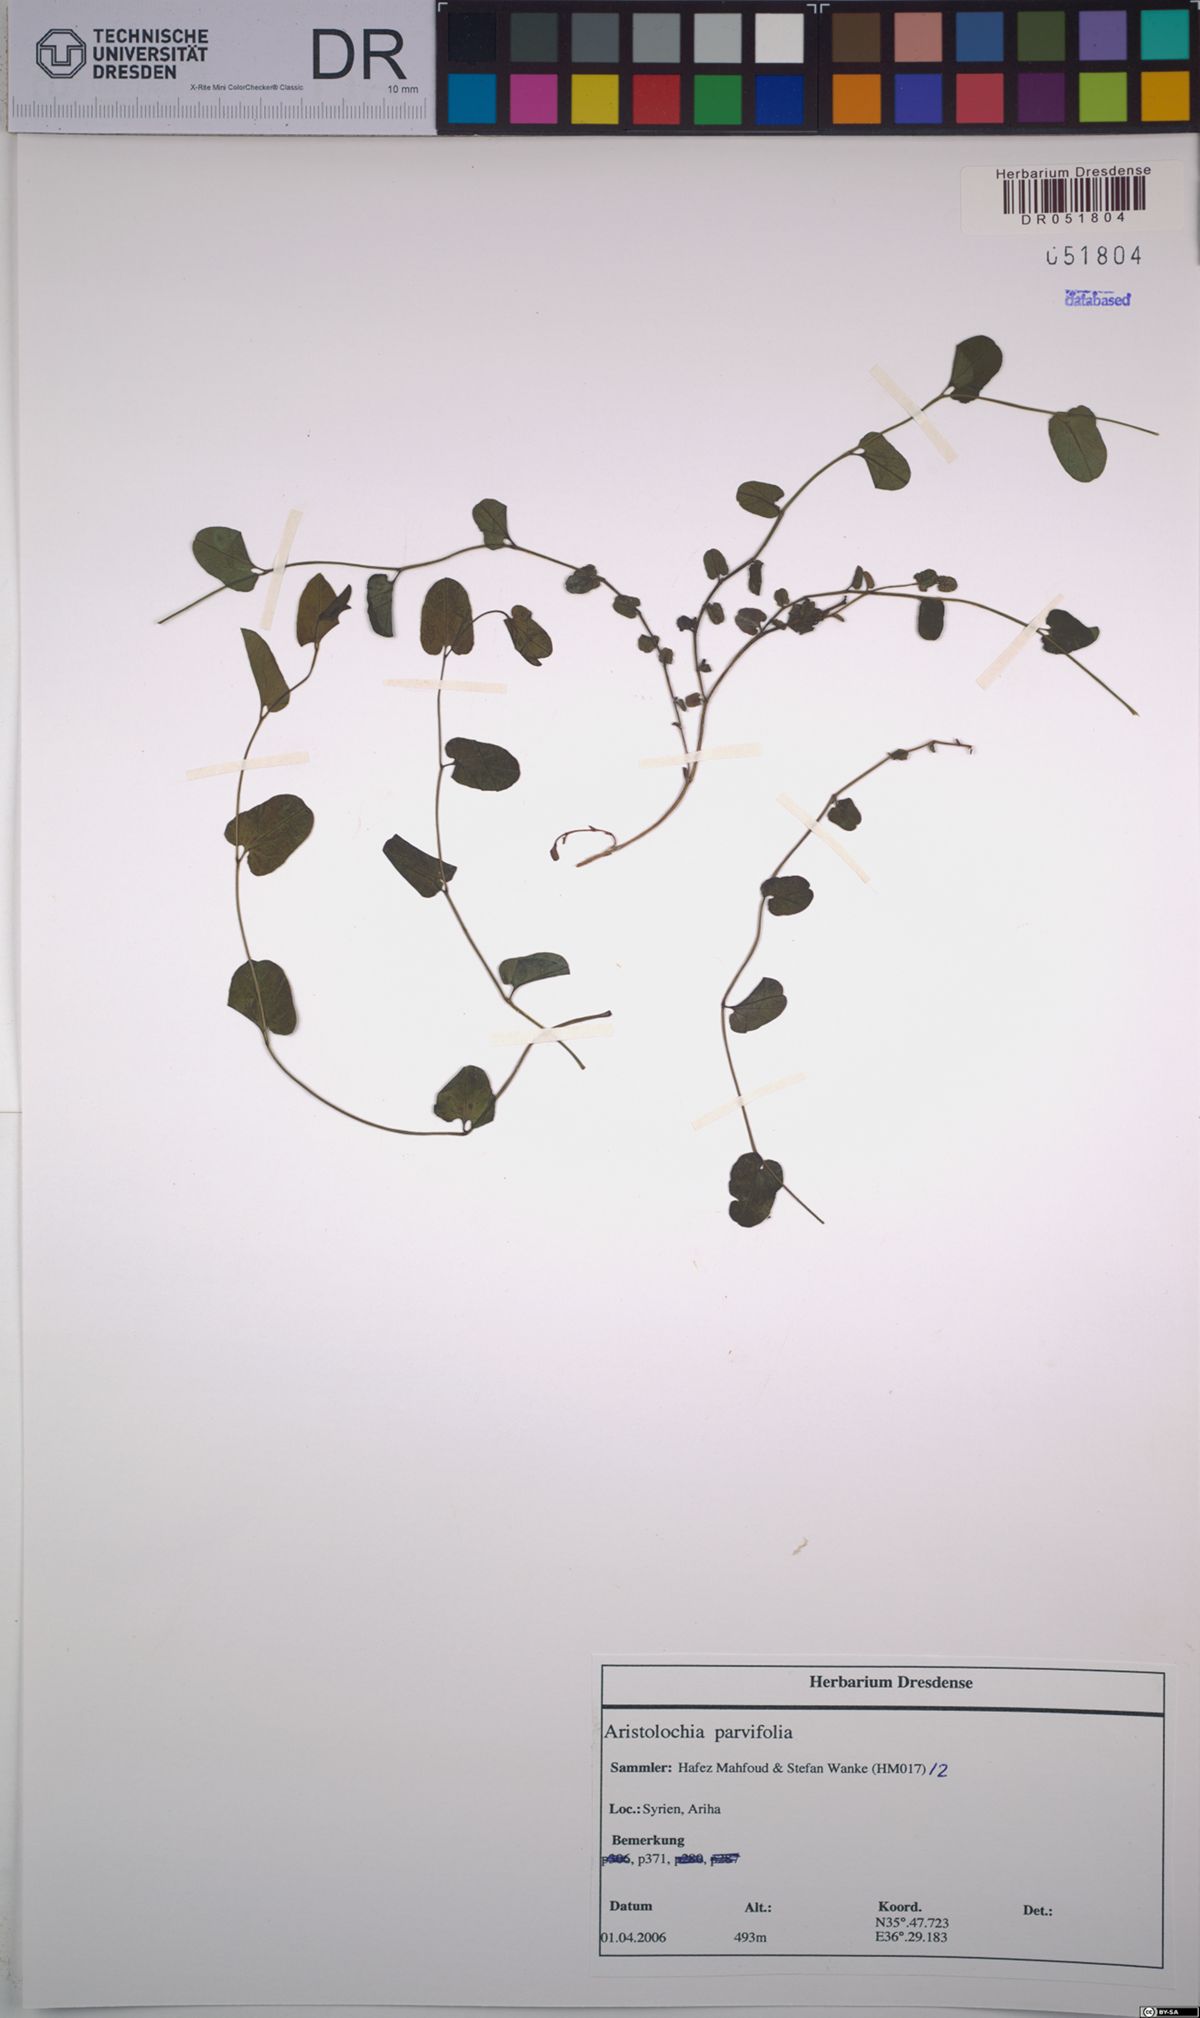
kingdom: Plantae
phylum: Tracheophyta
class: Magnoliopsida
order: Piperales
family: Aristolochiaceae
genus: Aristolochia
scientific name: Aristolochia parvifolia
